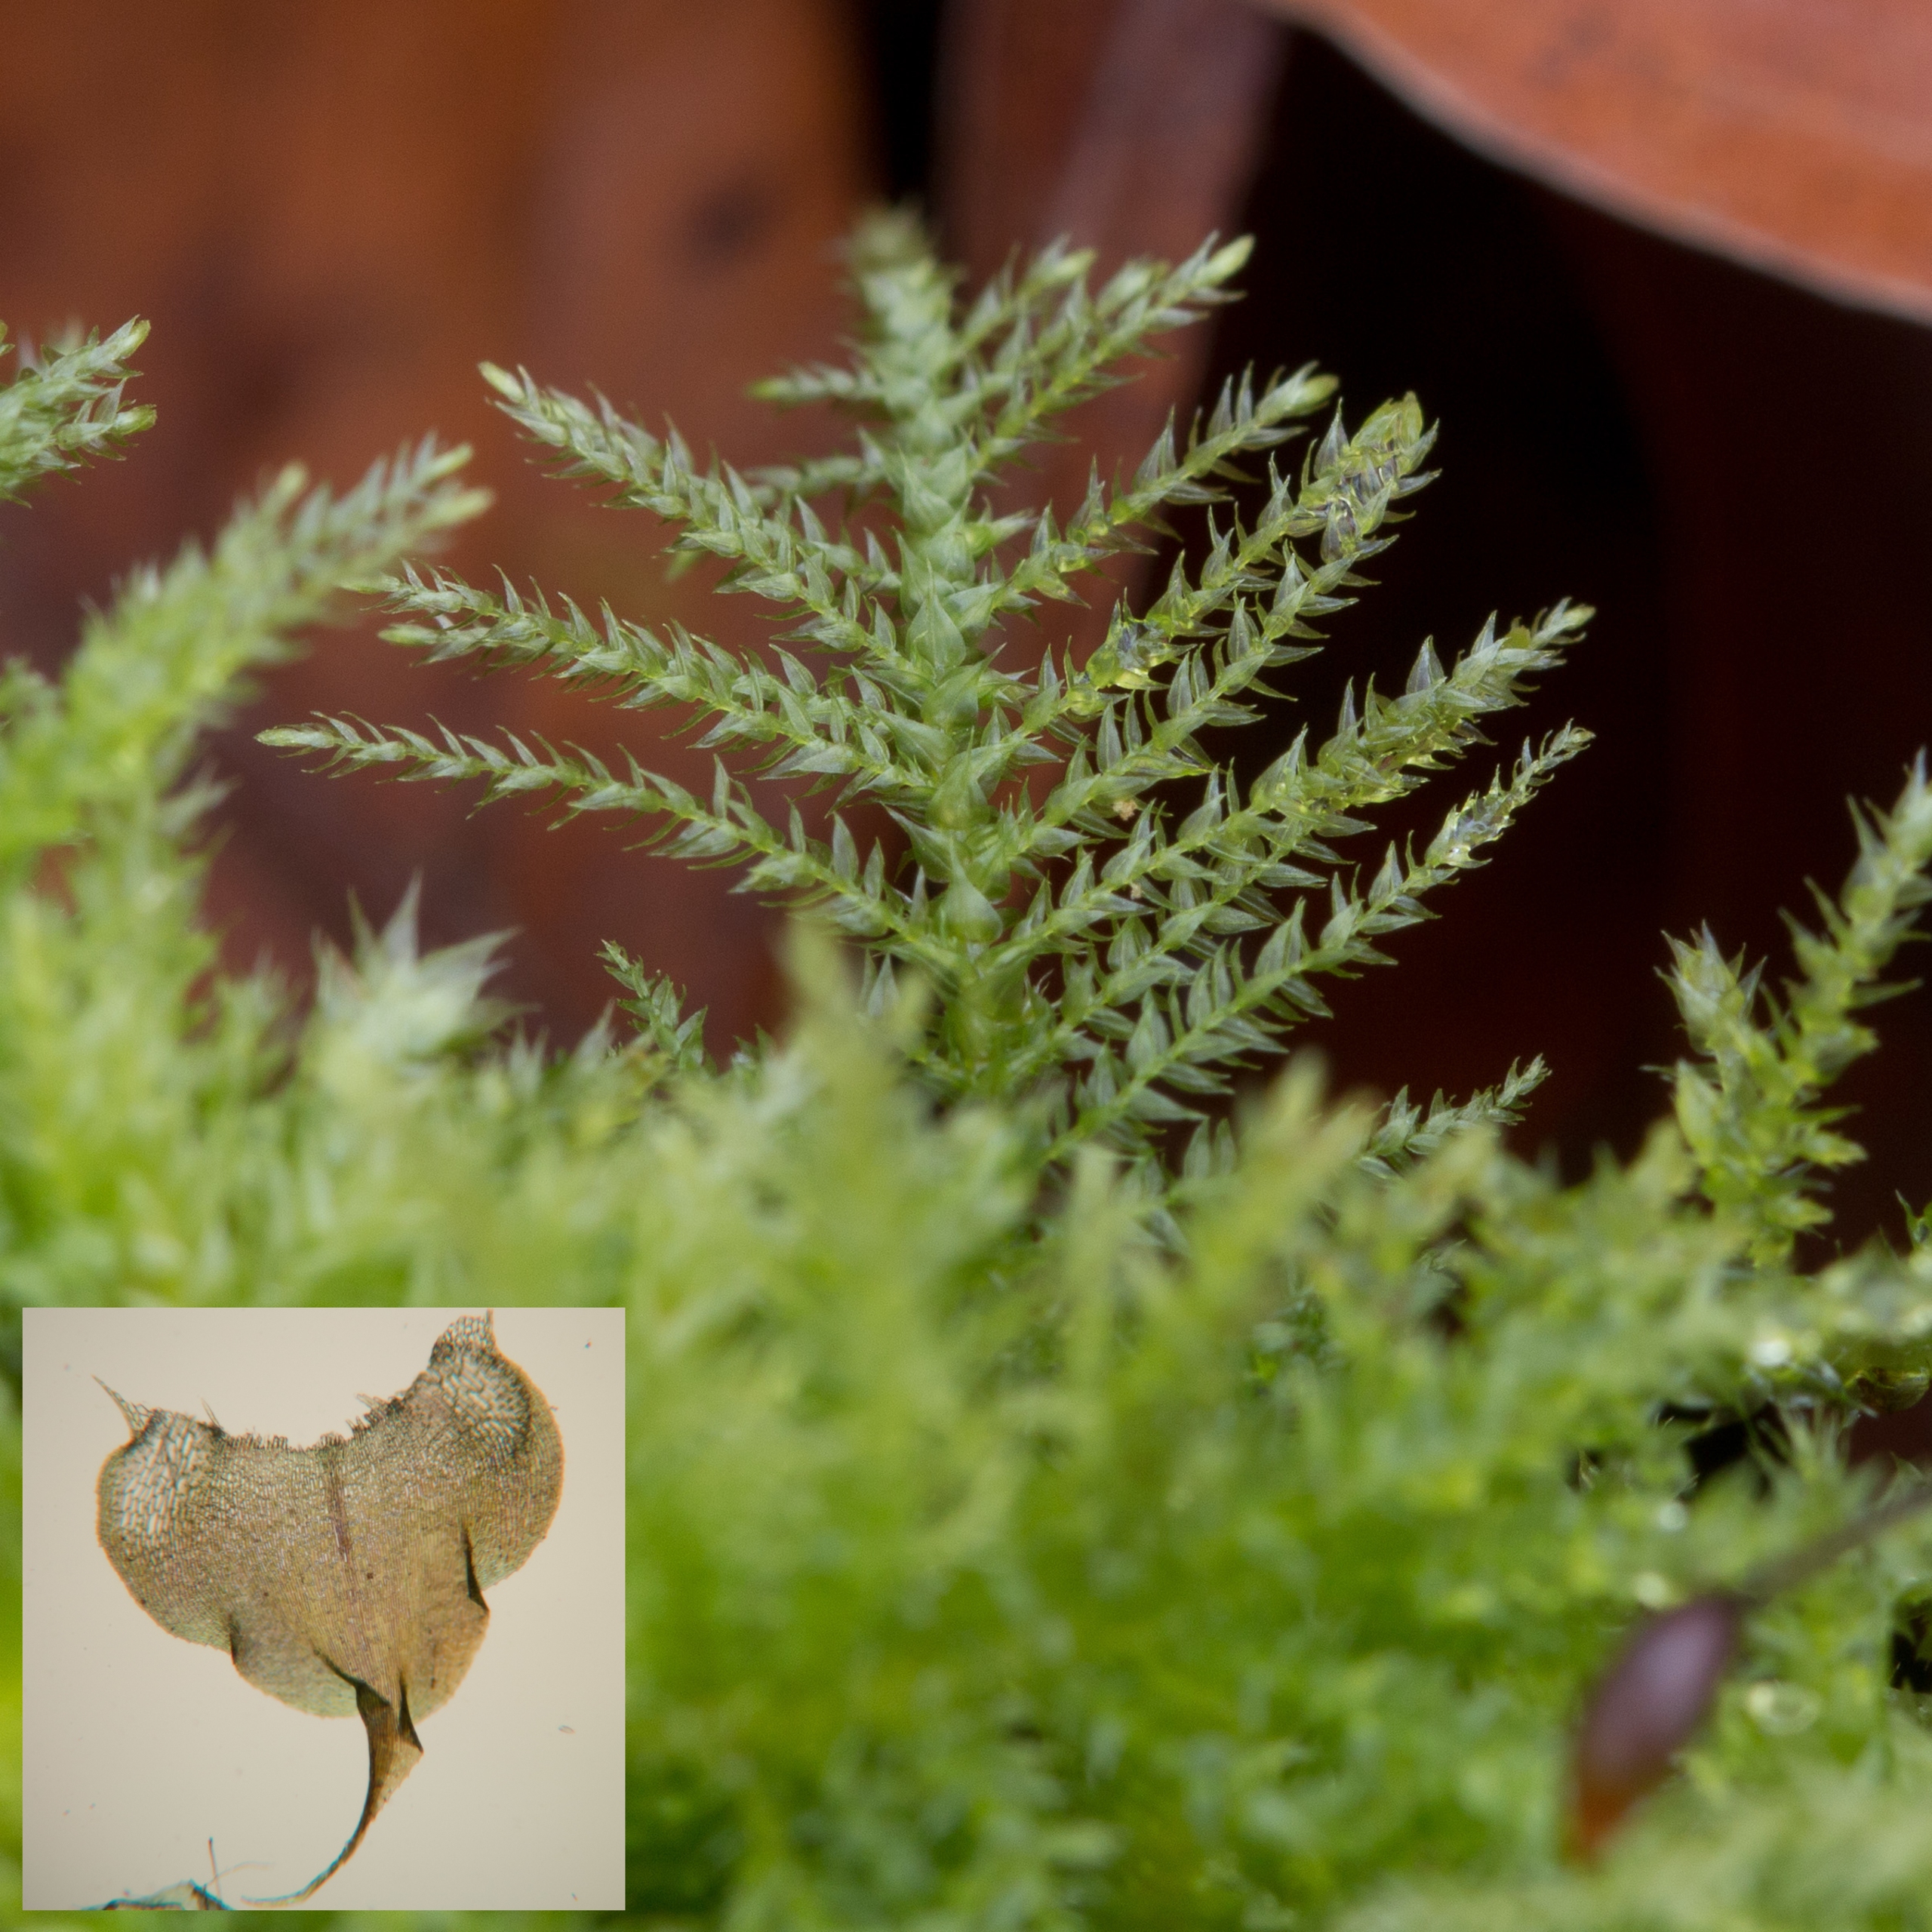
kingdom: Plantae
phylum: Bryophyta
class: Bryopsida
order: Hypnales
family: Brachytheciaceae
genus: Kindbergia
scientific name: Kindbergia praelonga
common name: Forskelligbladet vortetand
